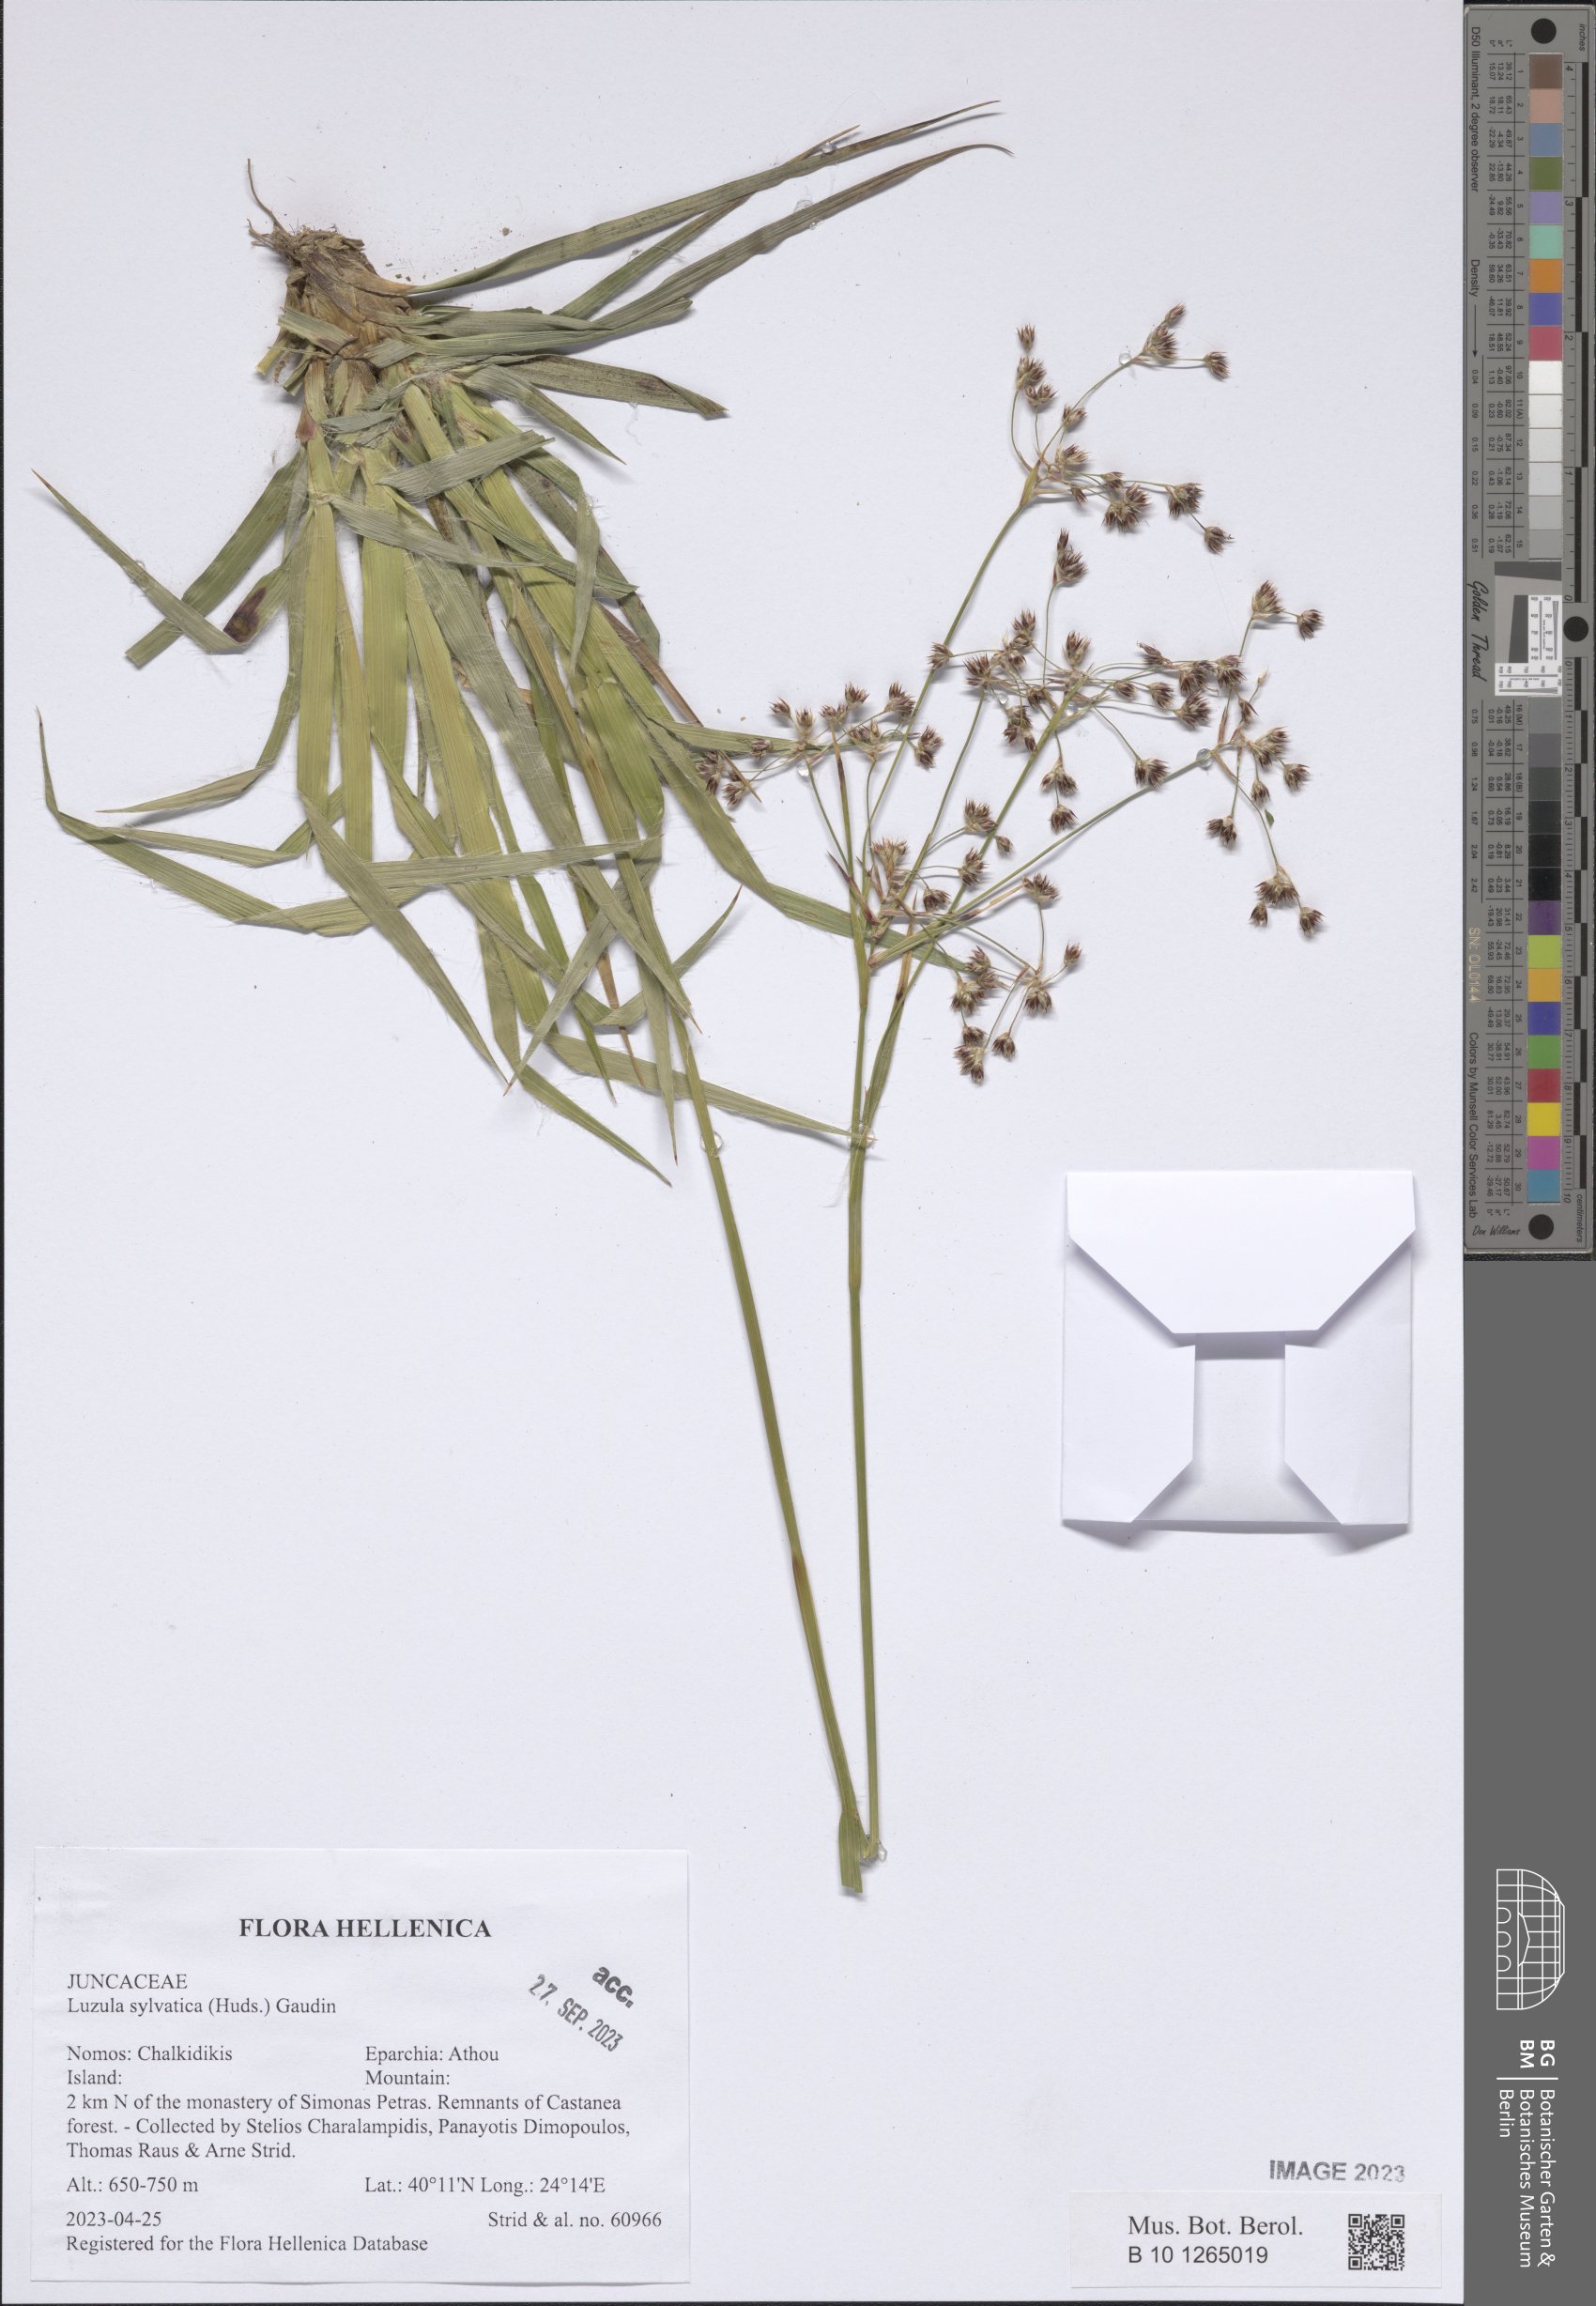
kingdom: Plantae
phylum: Tracheophyta
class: Liliopsida
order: Poales
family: Juncaceae
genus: Luzula
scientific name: Luzula sylvatica
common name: Great wood-rush
